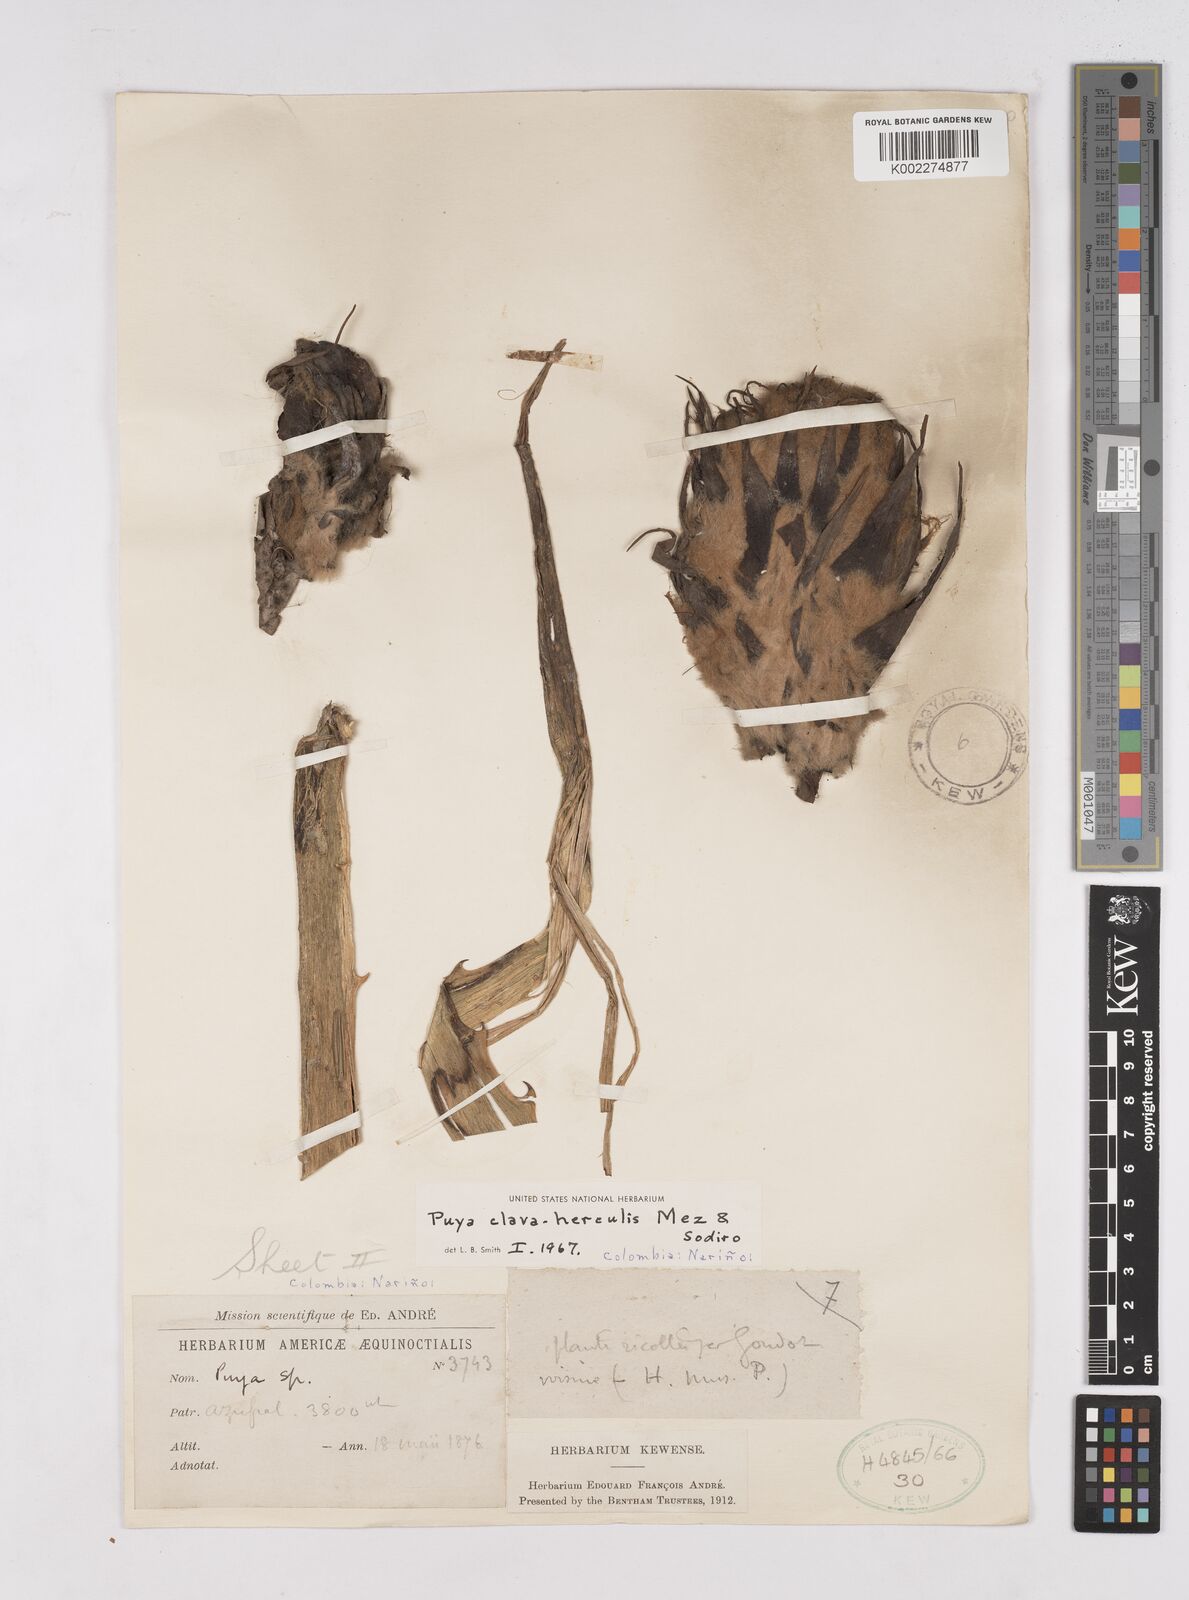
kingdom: Plantae
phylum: Tracheophyta
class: Liliopsida
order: Poales
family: Bromeliaceae
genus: Puya
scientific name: Puya clava-herculis
